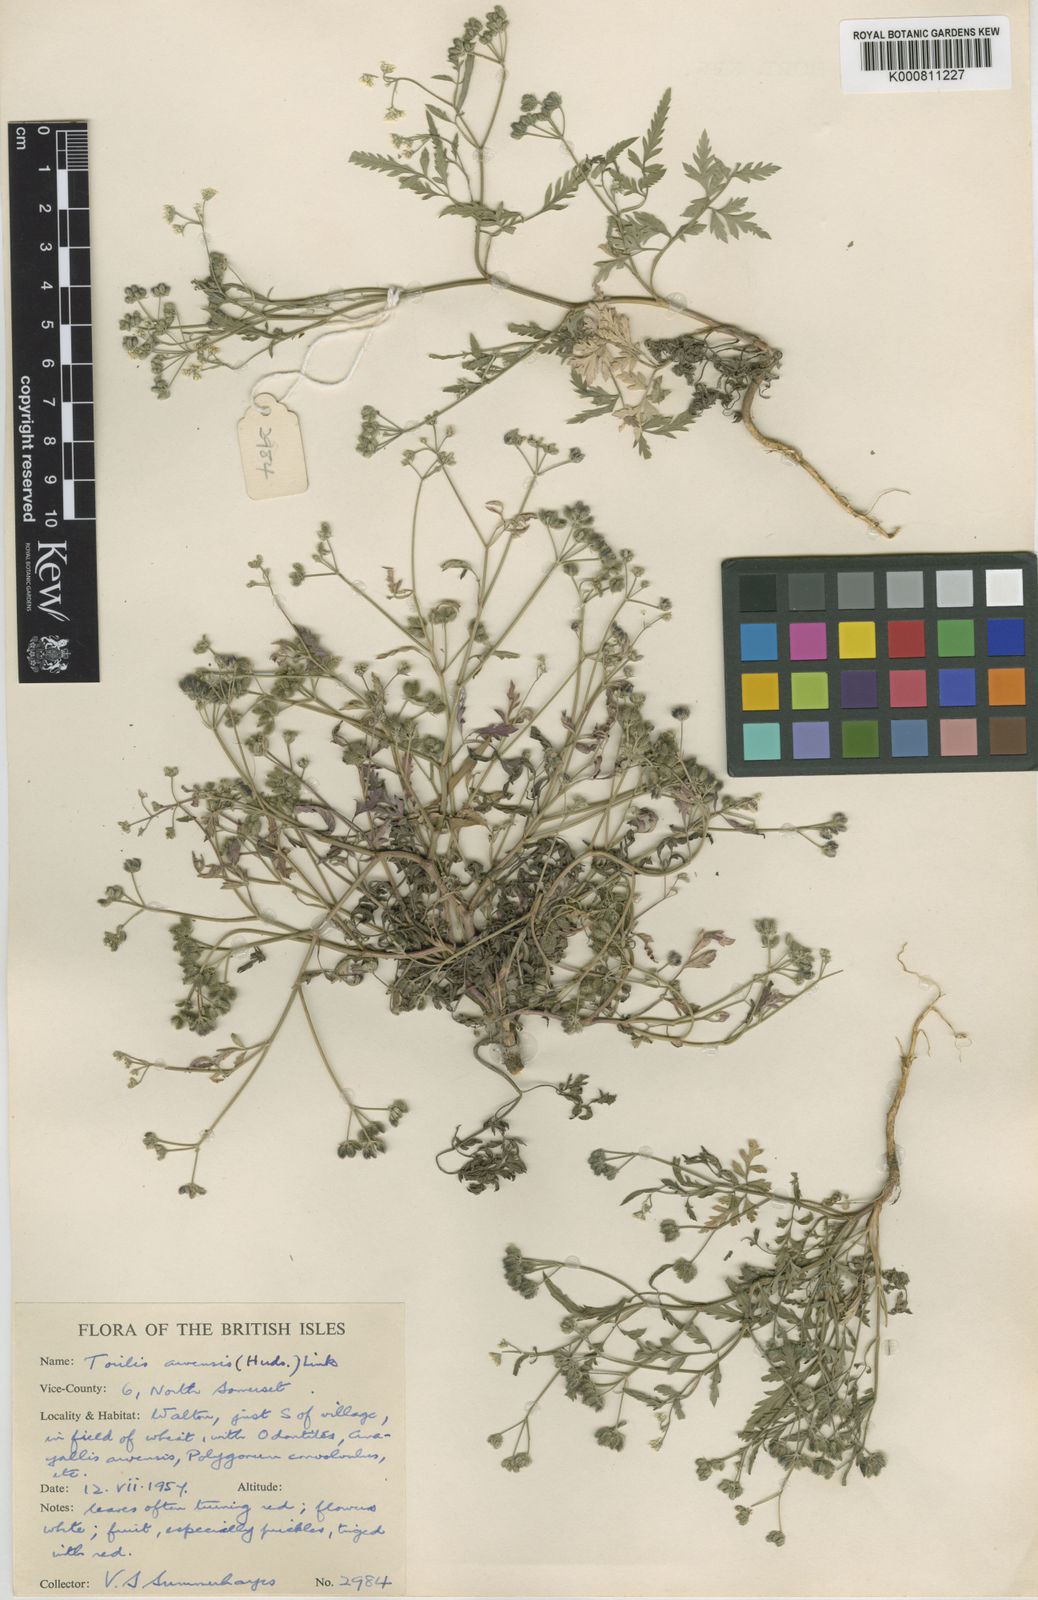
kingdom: Plantae
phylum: Tracheophyta
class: Magnoliopsida
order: Apiales
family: Apiaceae
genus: Torilis
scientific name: Torilis arvensis
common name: Spreading hedge-parsley
